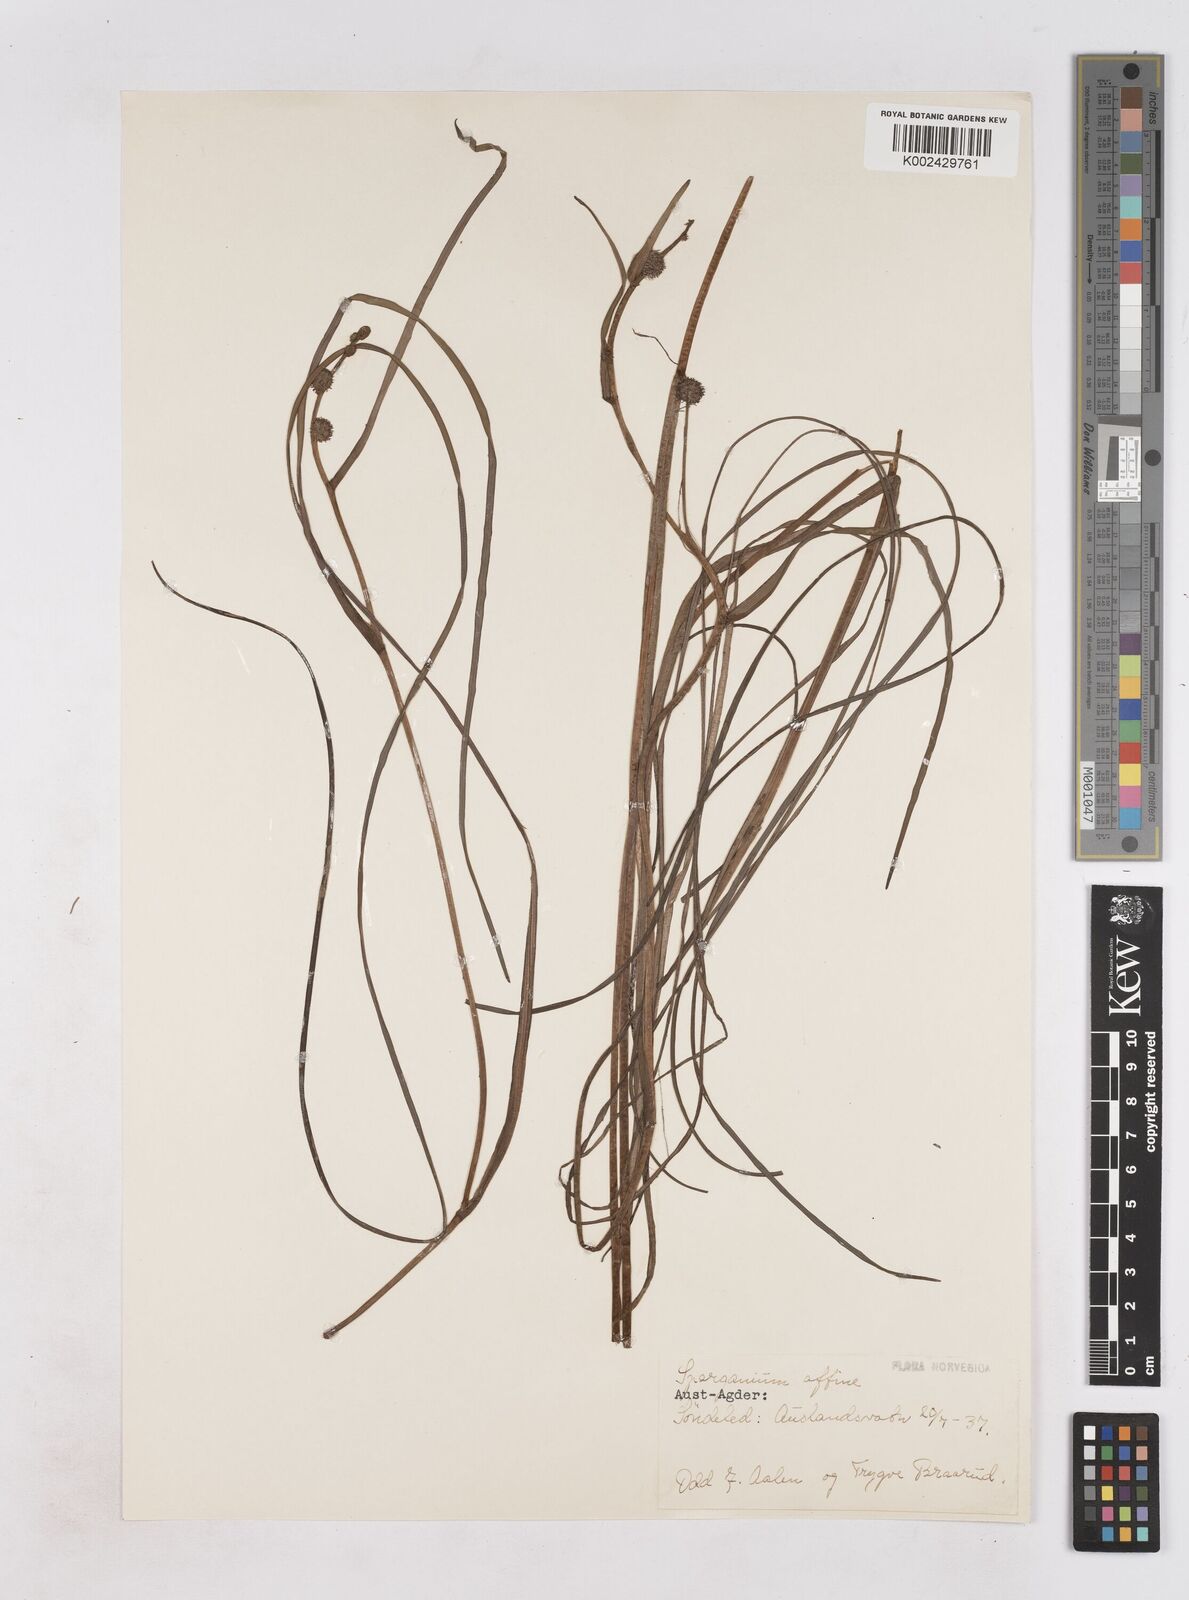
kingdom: Plantae
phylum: Tracheophyta
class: Liliopsida
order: Poales
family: Typhaceae
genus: Sparganium
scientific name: Sparganium angustifolium
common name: Floating bur-reed
